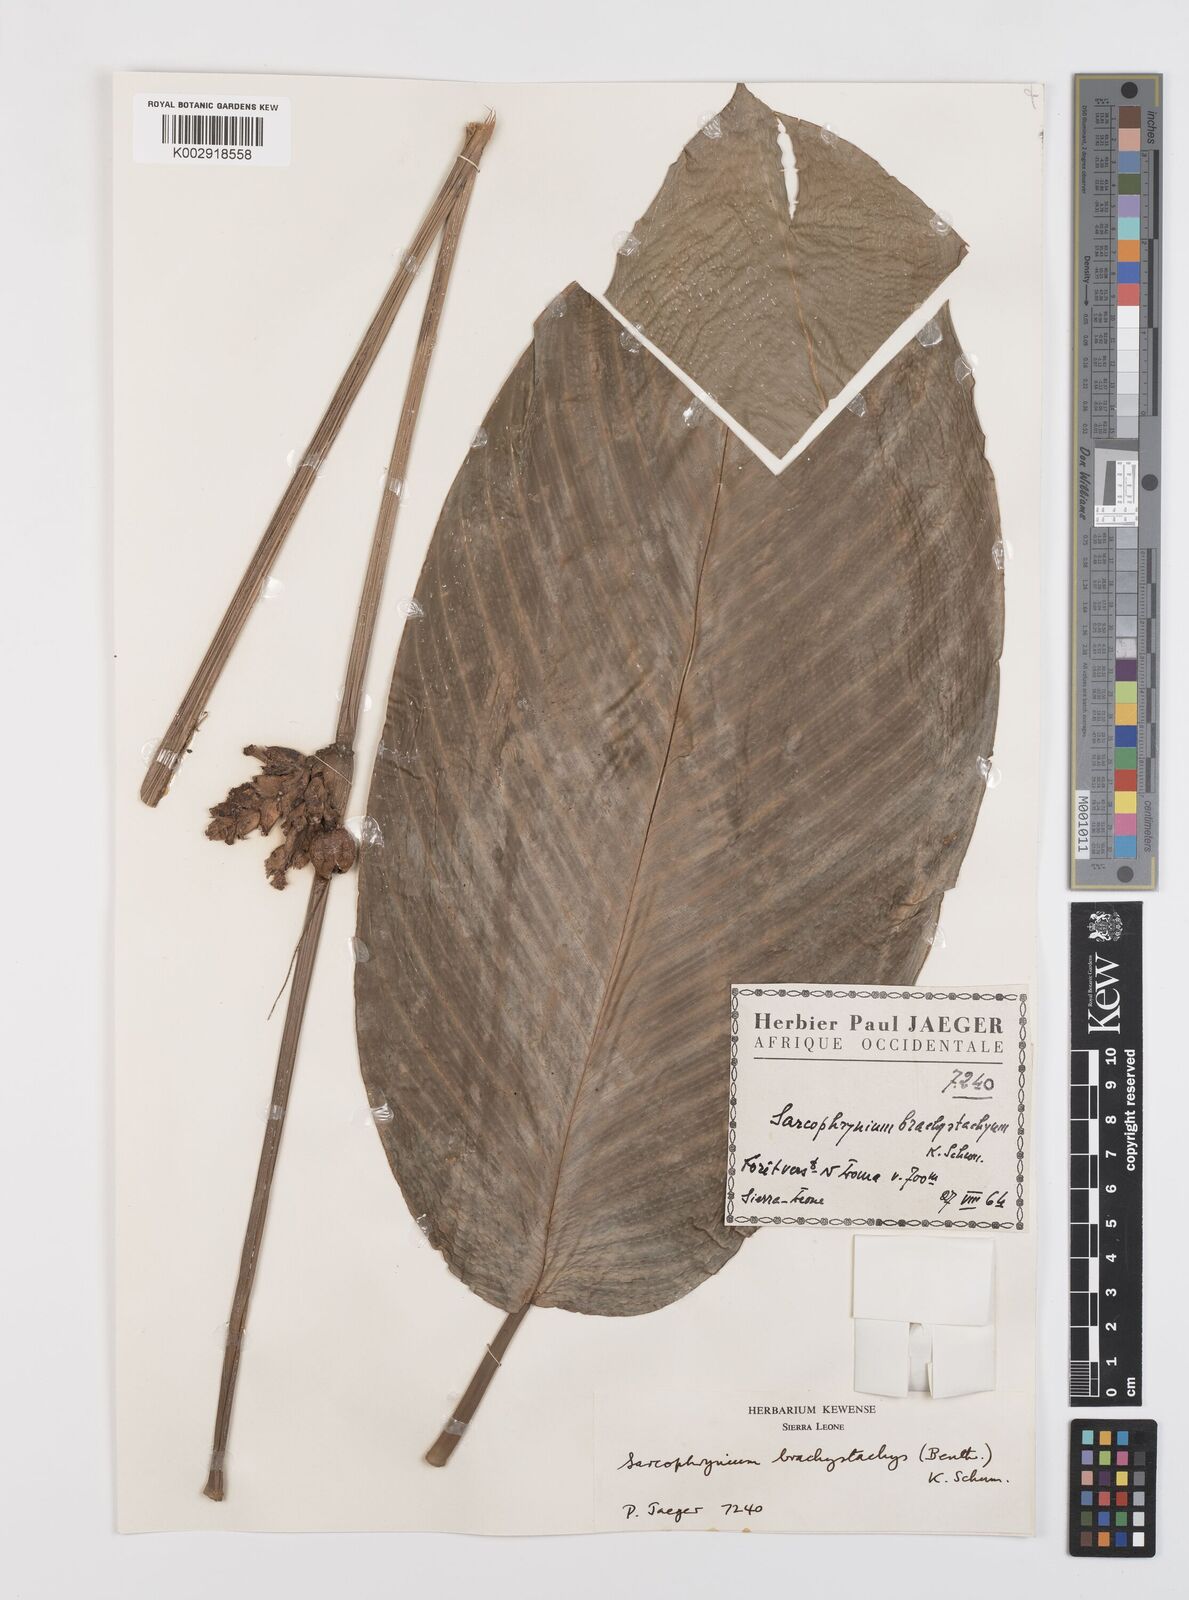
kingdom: Plantae
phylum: Tracheophyta
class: Liliopsida
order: Zingiberales
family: Marantaceae
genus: Sarcophrynium
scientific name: Sarcophrynium brachystachyum
